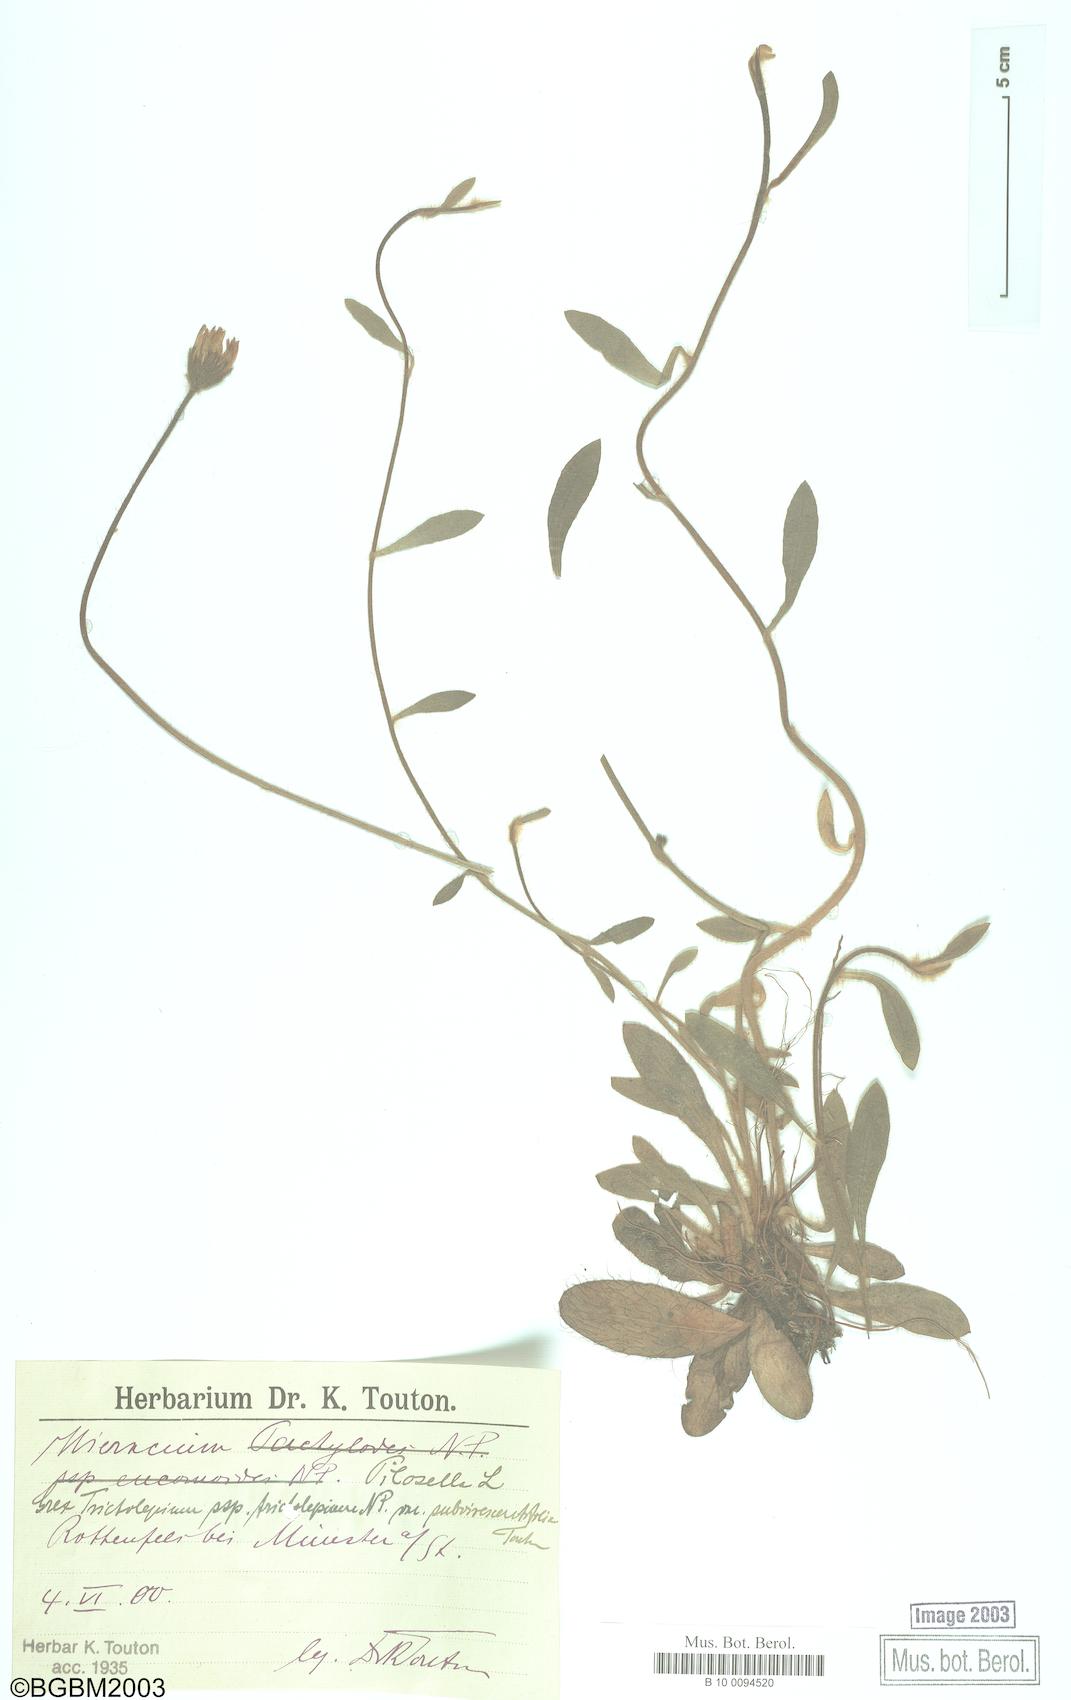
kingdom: Plantae
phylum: Tracheophyta
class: Magnoliopsida
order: Asterales
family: Asteraceae
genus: Pilosella
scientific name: Pilosella officinarum
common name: Mouse-ear hawkweed
